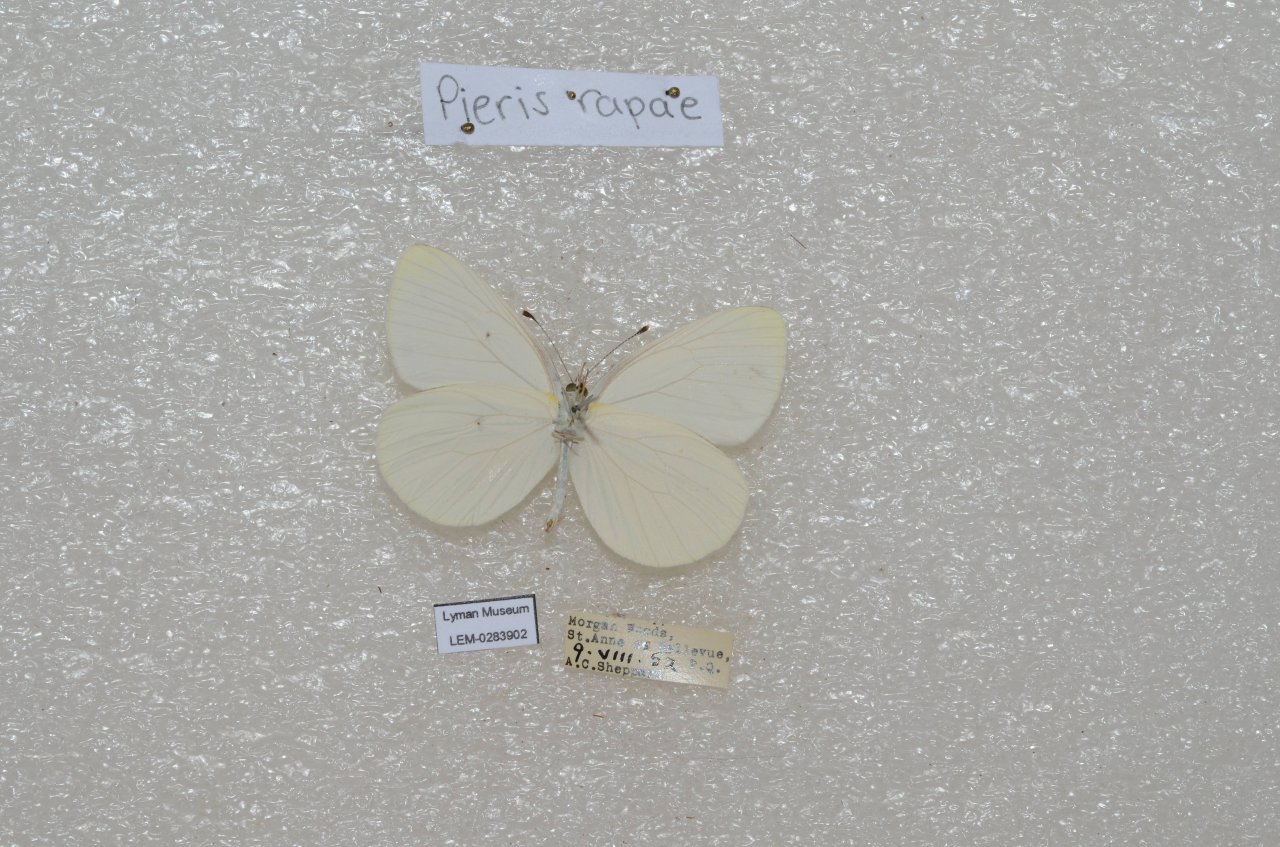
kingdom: Animalia
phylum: Arthropoda
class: Insecta
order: Lepidoptera
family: Pieridae
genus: Pieris
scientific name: Pieris oleracea
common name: Mustard White
